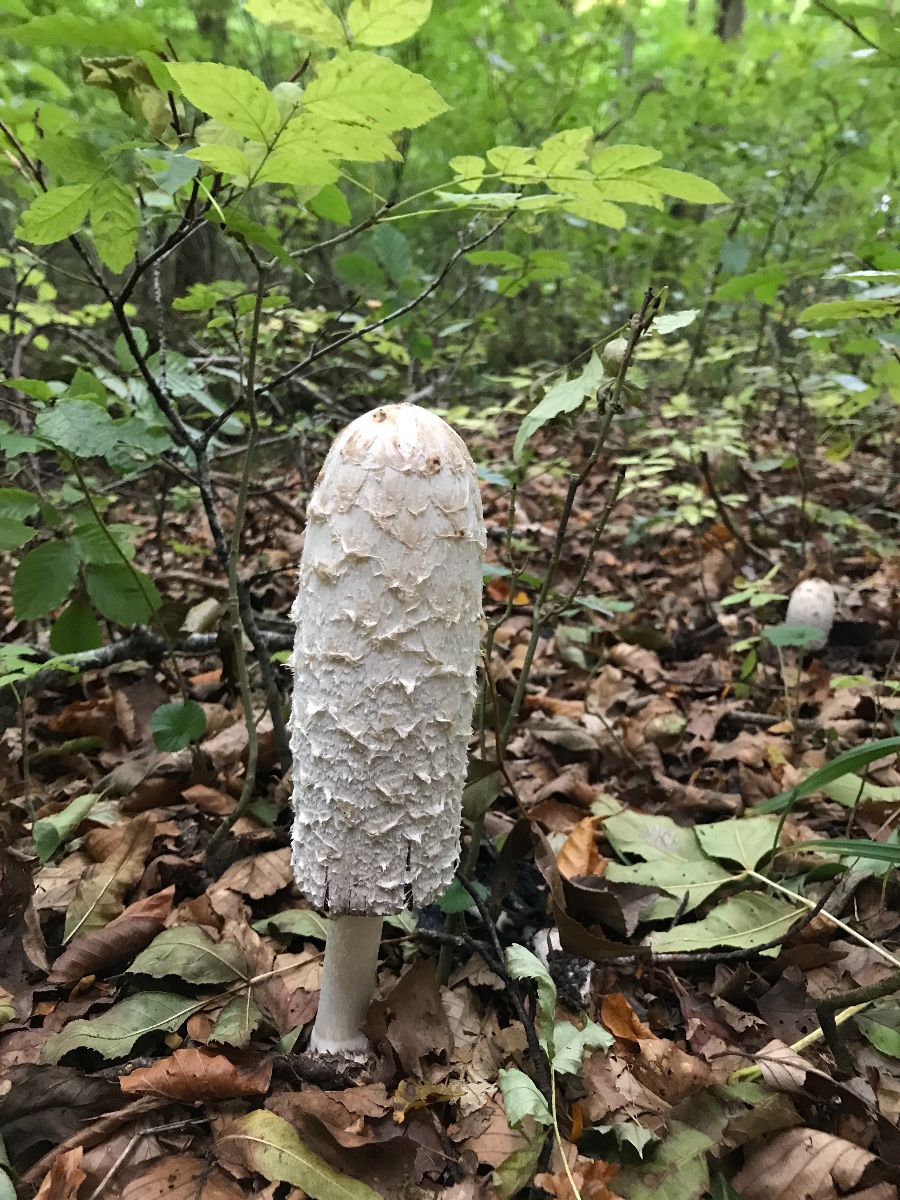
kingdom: Fungi
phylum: Basidiomycota
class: Agaricomycetes
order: Agaricales
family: Agaricaceae
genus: Coprinus
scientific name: Coprinus comatus
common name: stor parykhat
